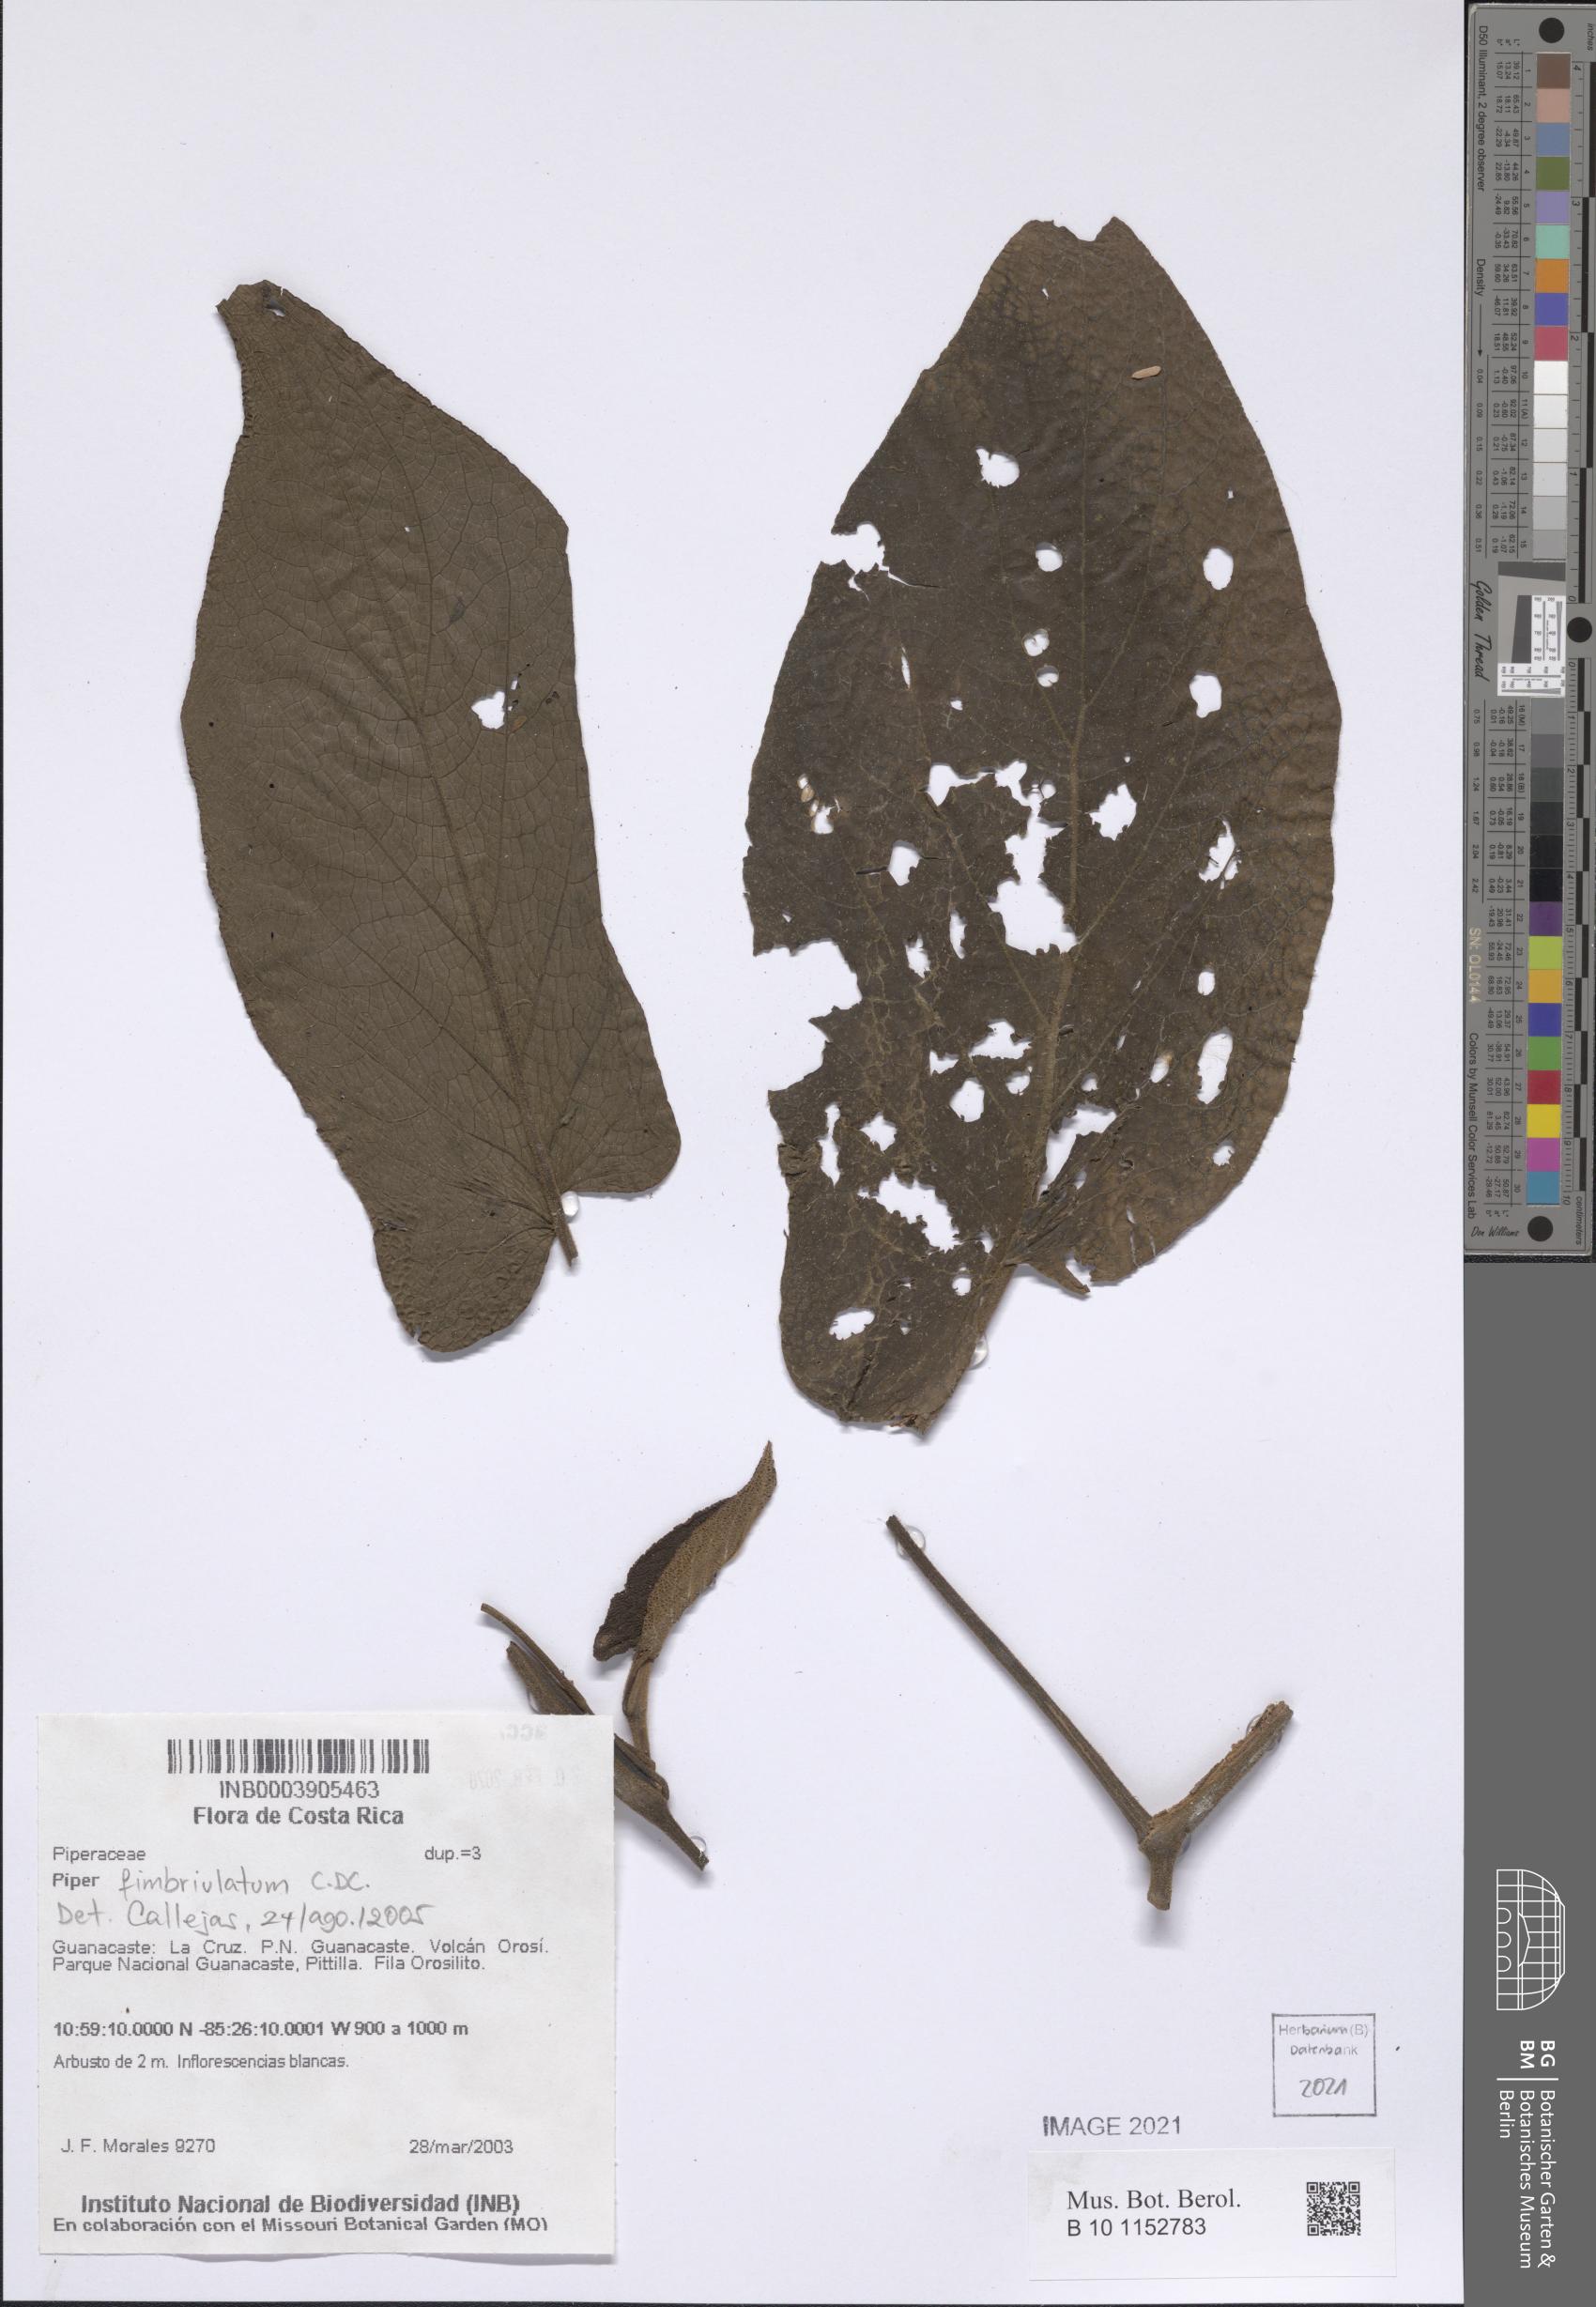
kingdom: Plantae
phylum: Tracheophyta
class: Magnoliopsida
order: Piperales
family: Piperaceae
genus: Piper
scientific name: Piper fimbriulatum
